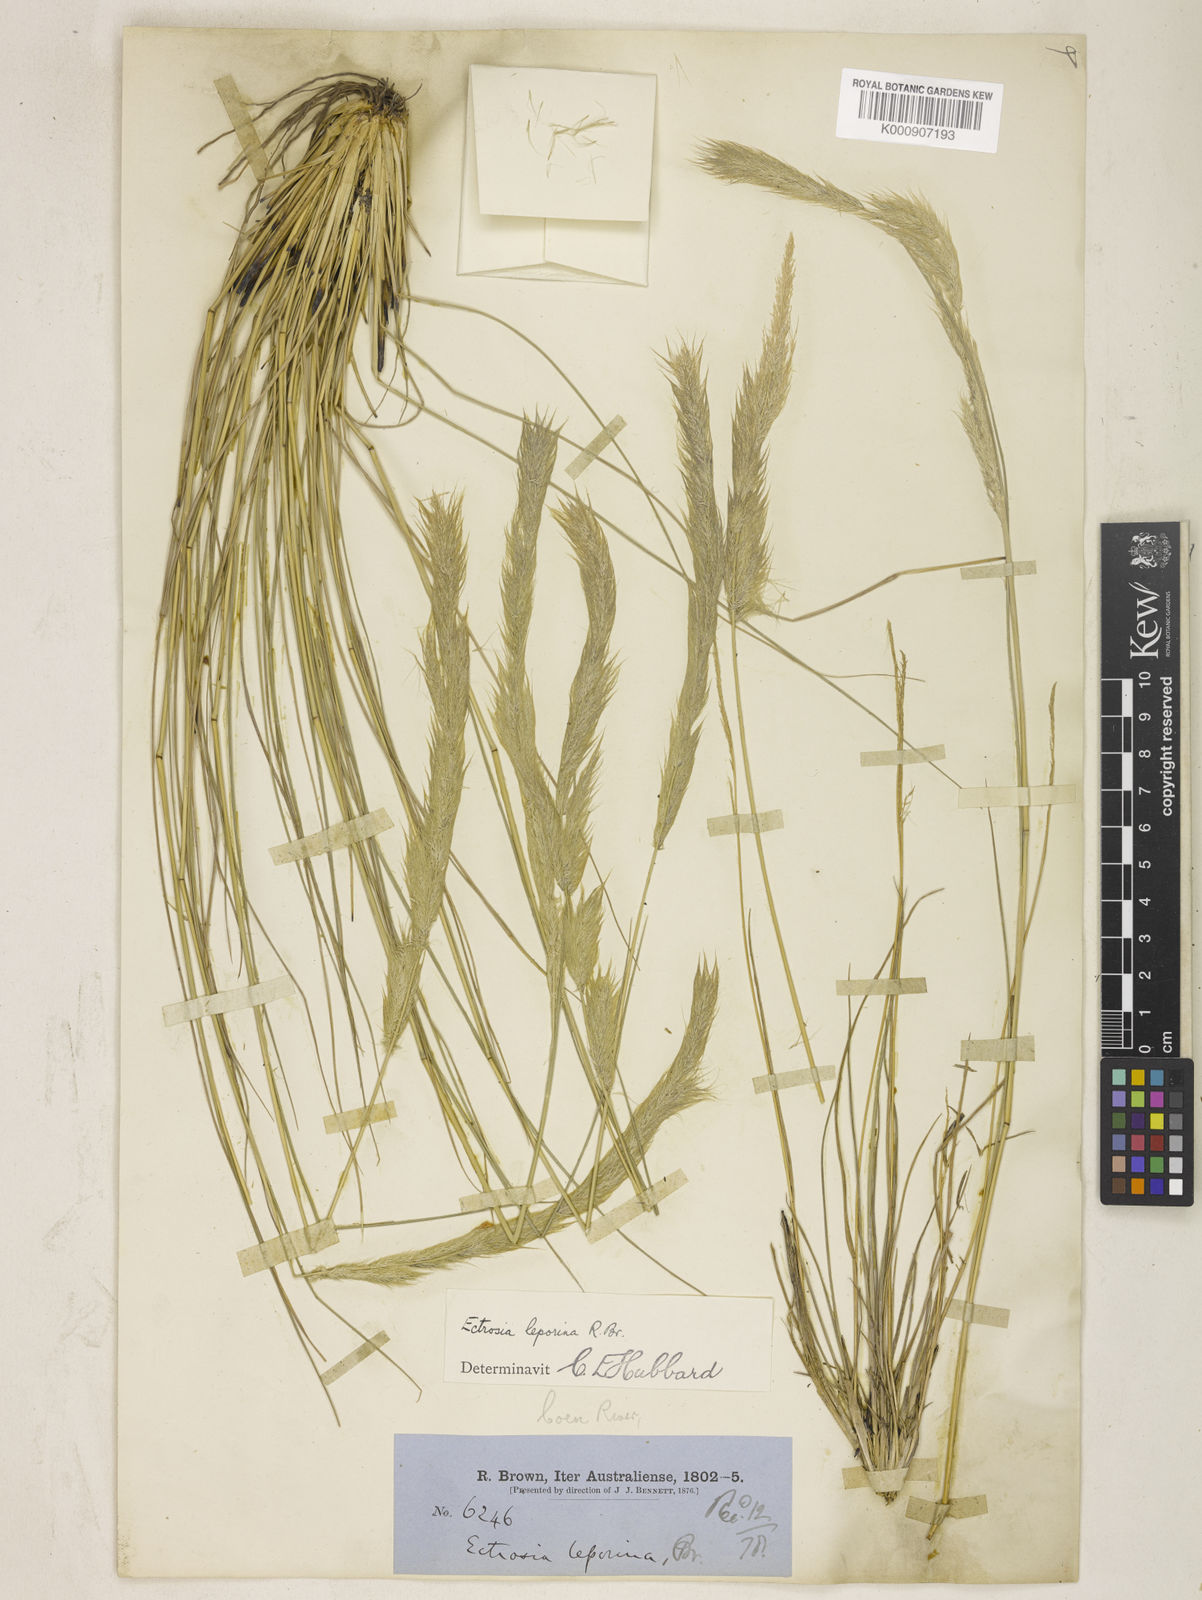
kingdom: Plantae
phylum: Tracheophyta
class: Liliopsida
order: Poales
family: Poaceae
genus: Eragrostis
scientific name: Eragrostis leporina
